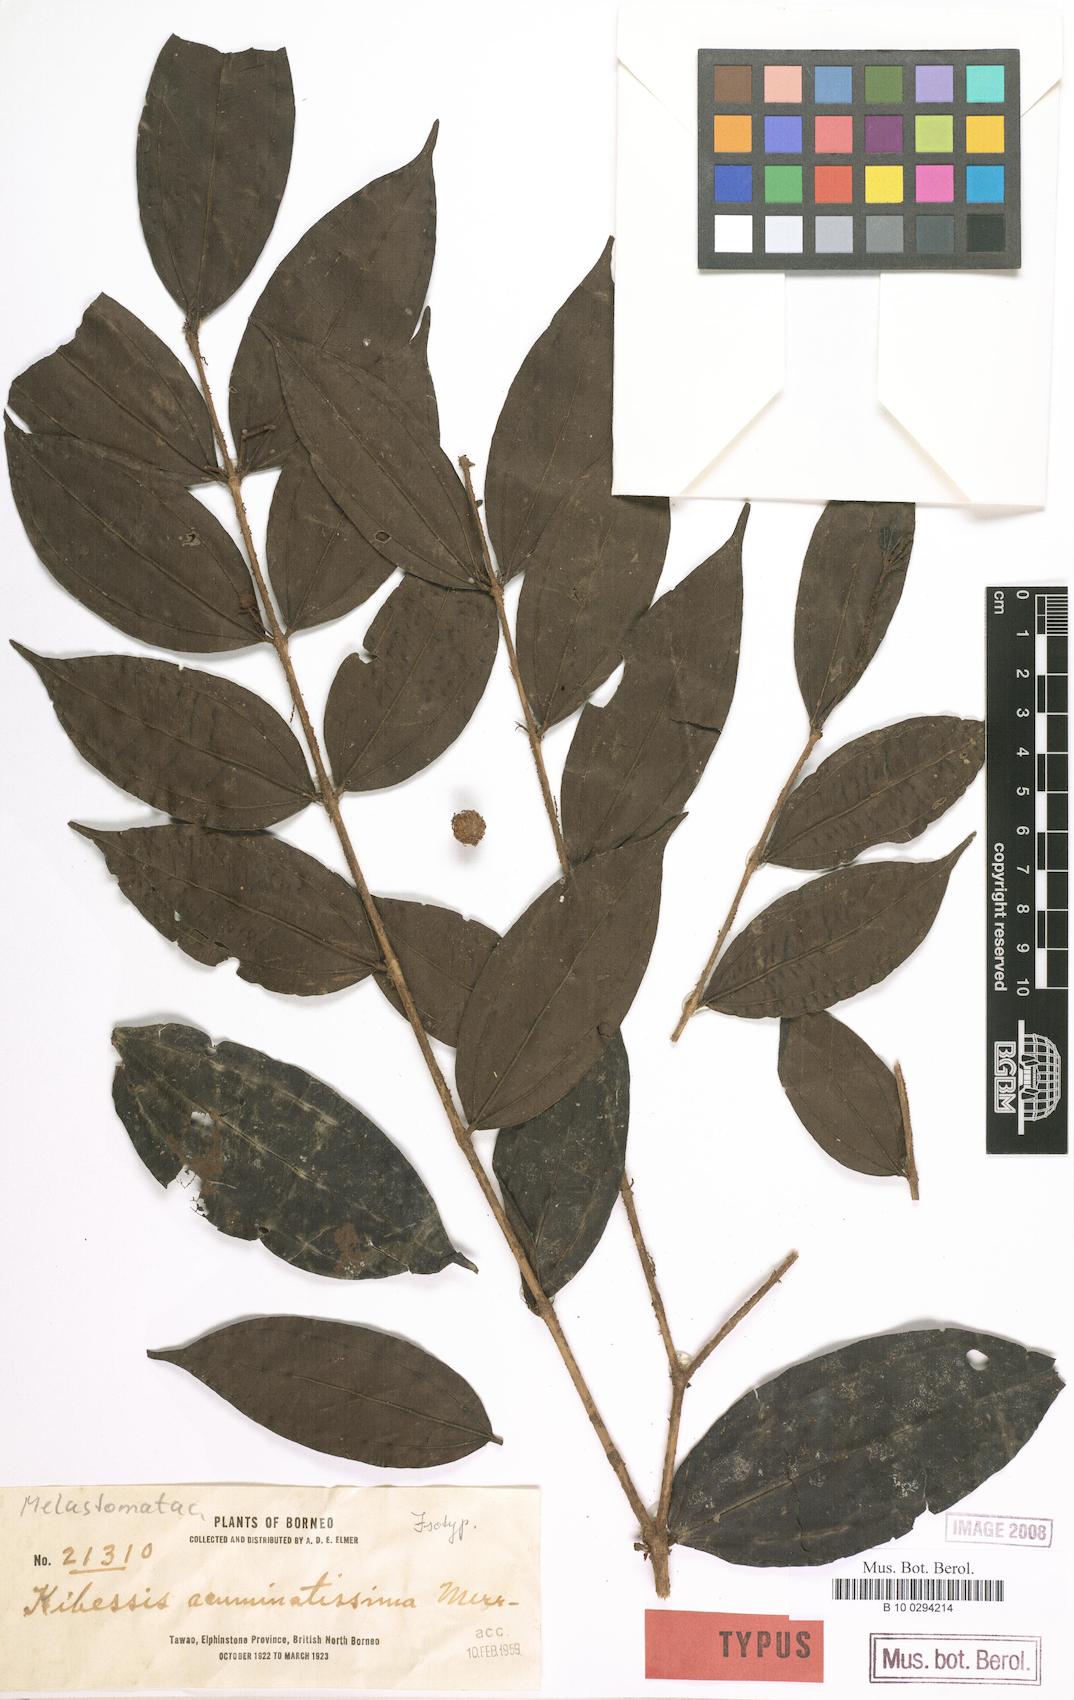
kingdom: Plantae
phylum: Tracheophyta
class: Magnoliopsida
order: Myrtales
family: Melastomataceae
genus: Pternandra
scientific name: Pternandra azurea
